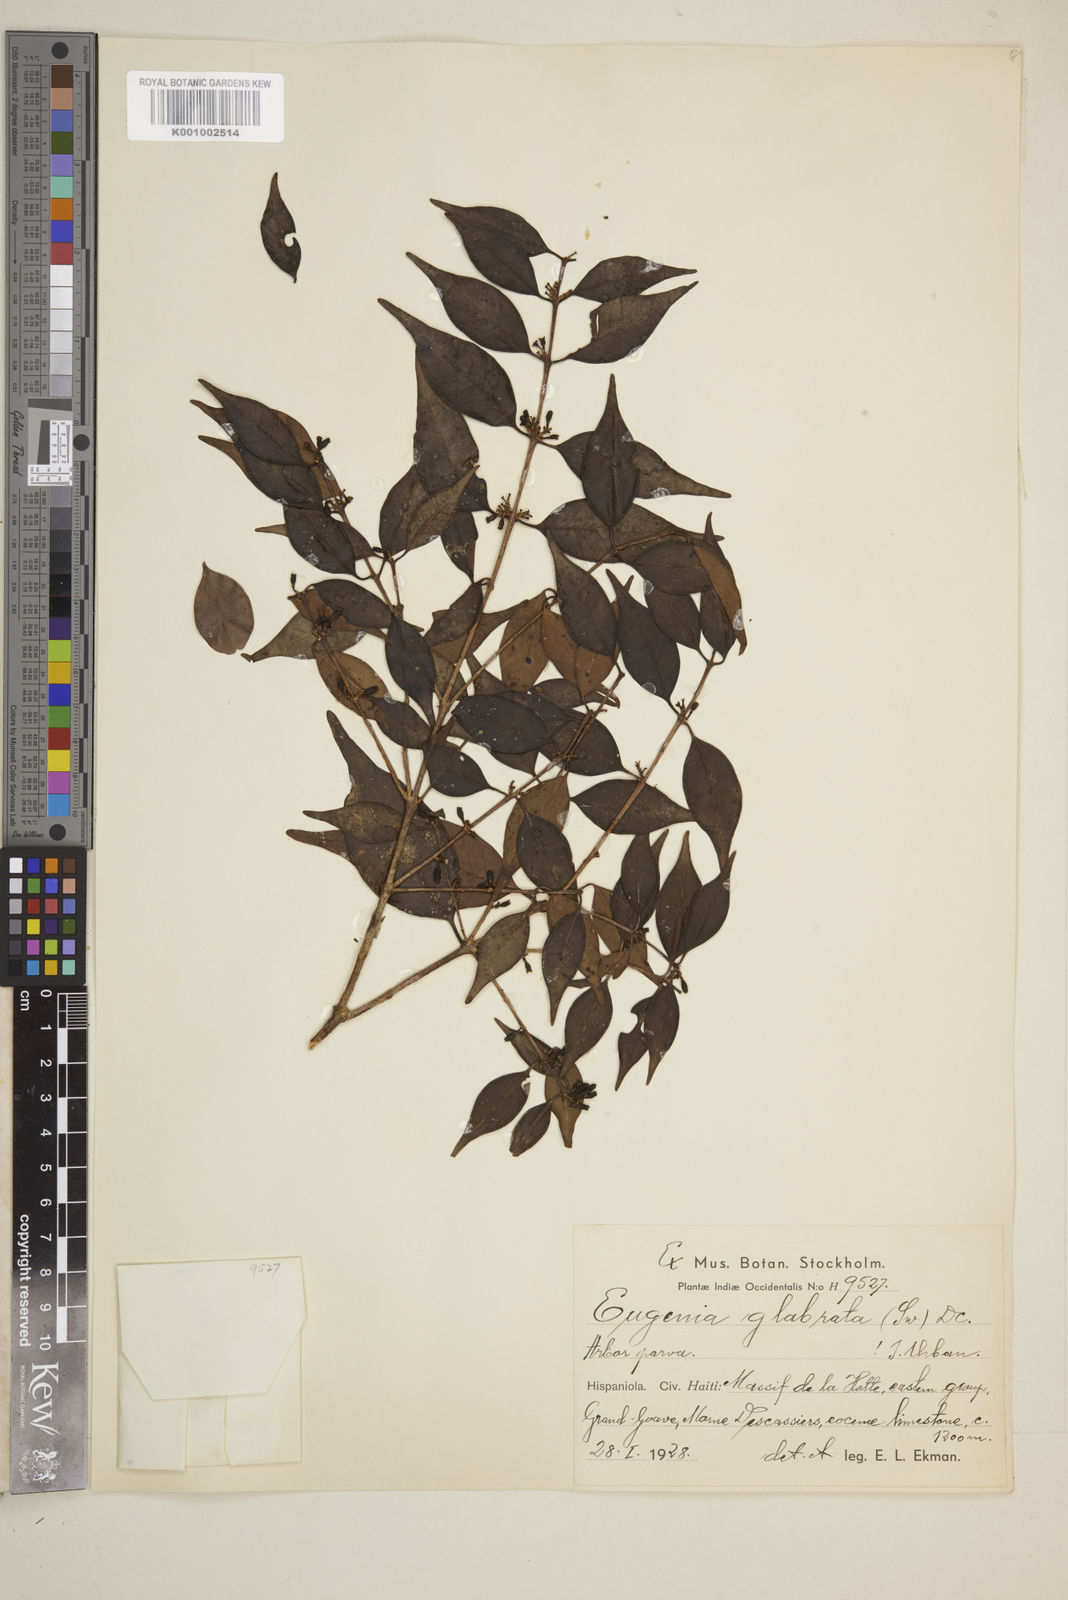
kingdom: Plantae
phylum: Tracheophyta
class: Magnoliopsida
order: Myrtales
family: Myrtaceae
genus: Eugenia
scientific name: Eugenia glabrata
